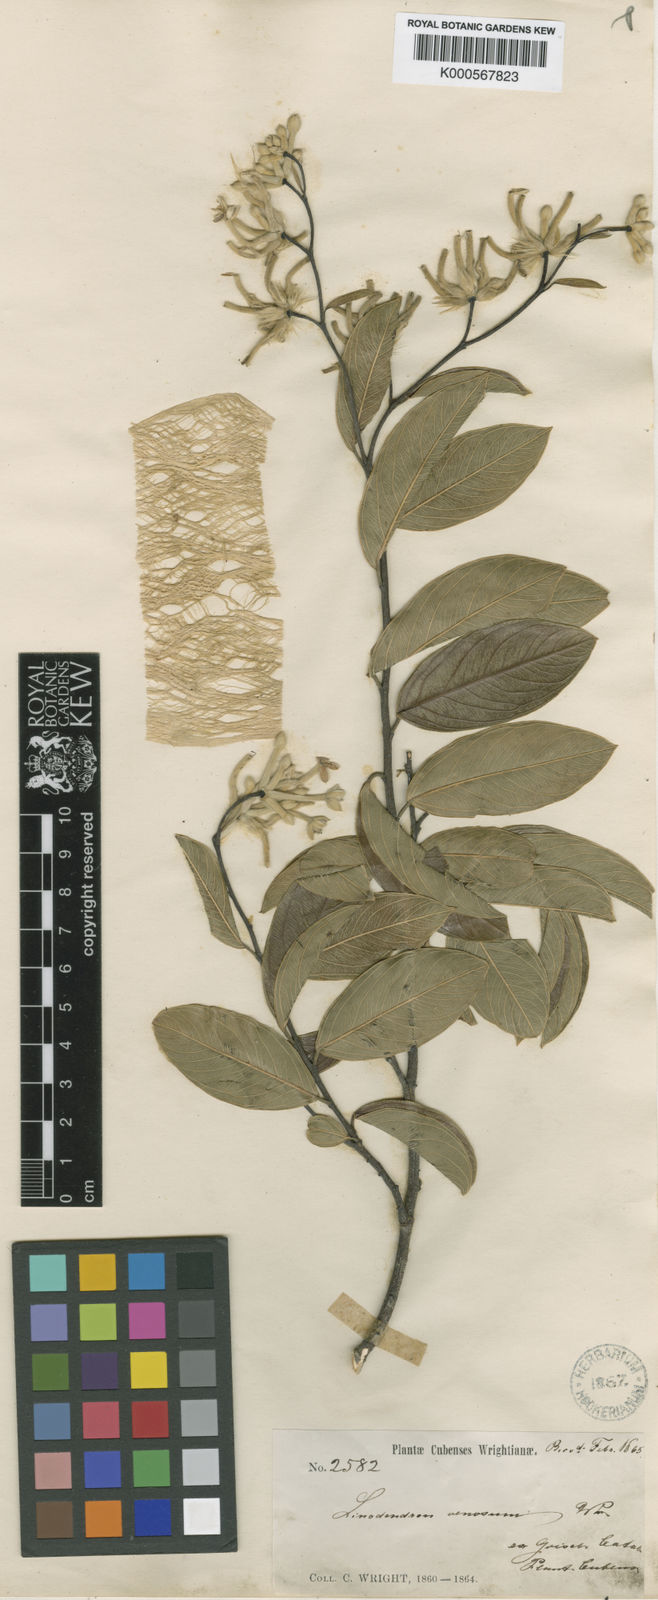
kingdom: Plantae
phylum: Tracheophyta
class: Magnoliopsida
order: Malvales
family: Thymelaeaceae
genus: Linodendron
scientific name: Linodendron venosum
